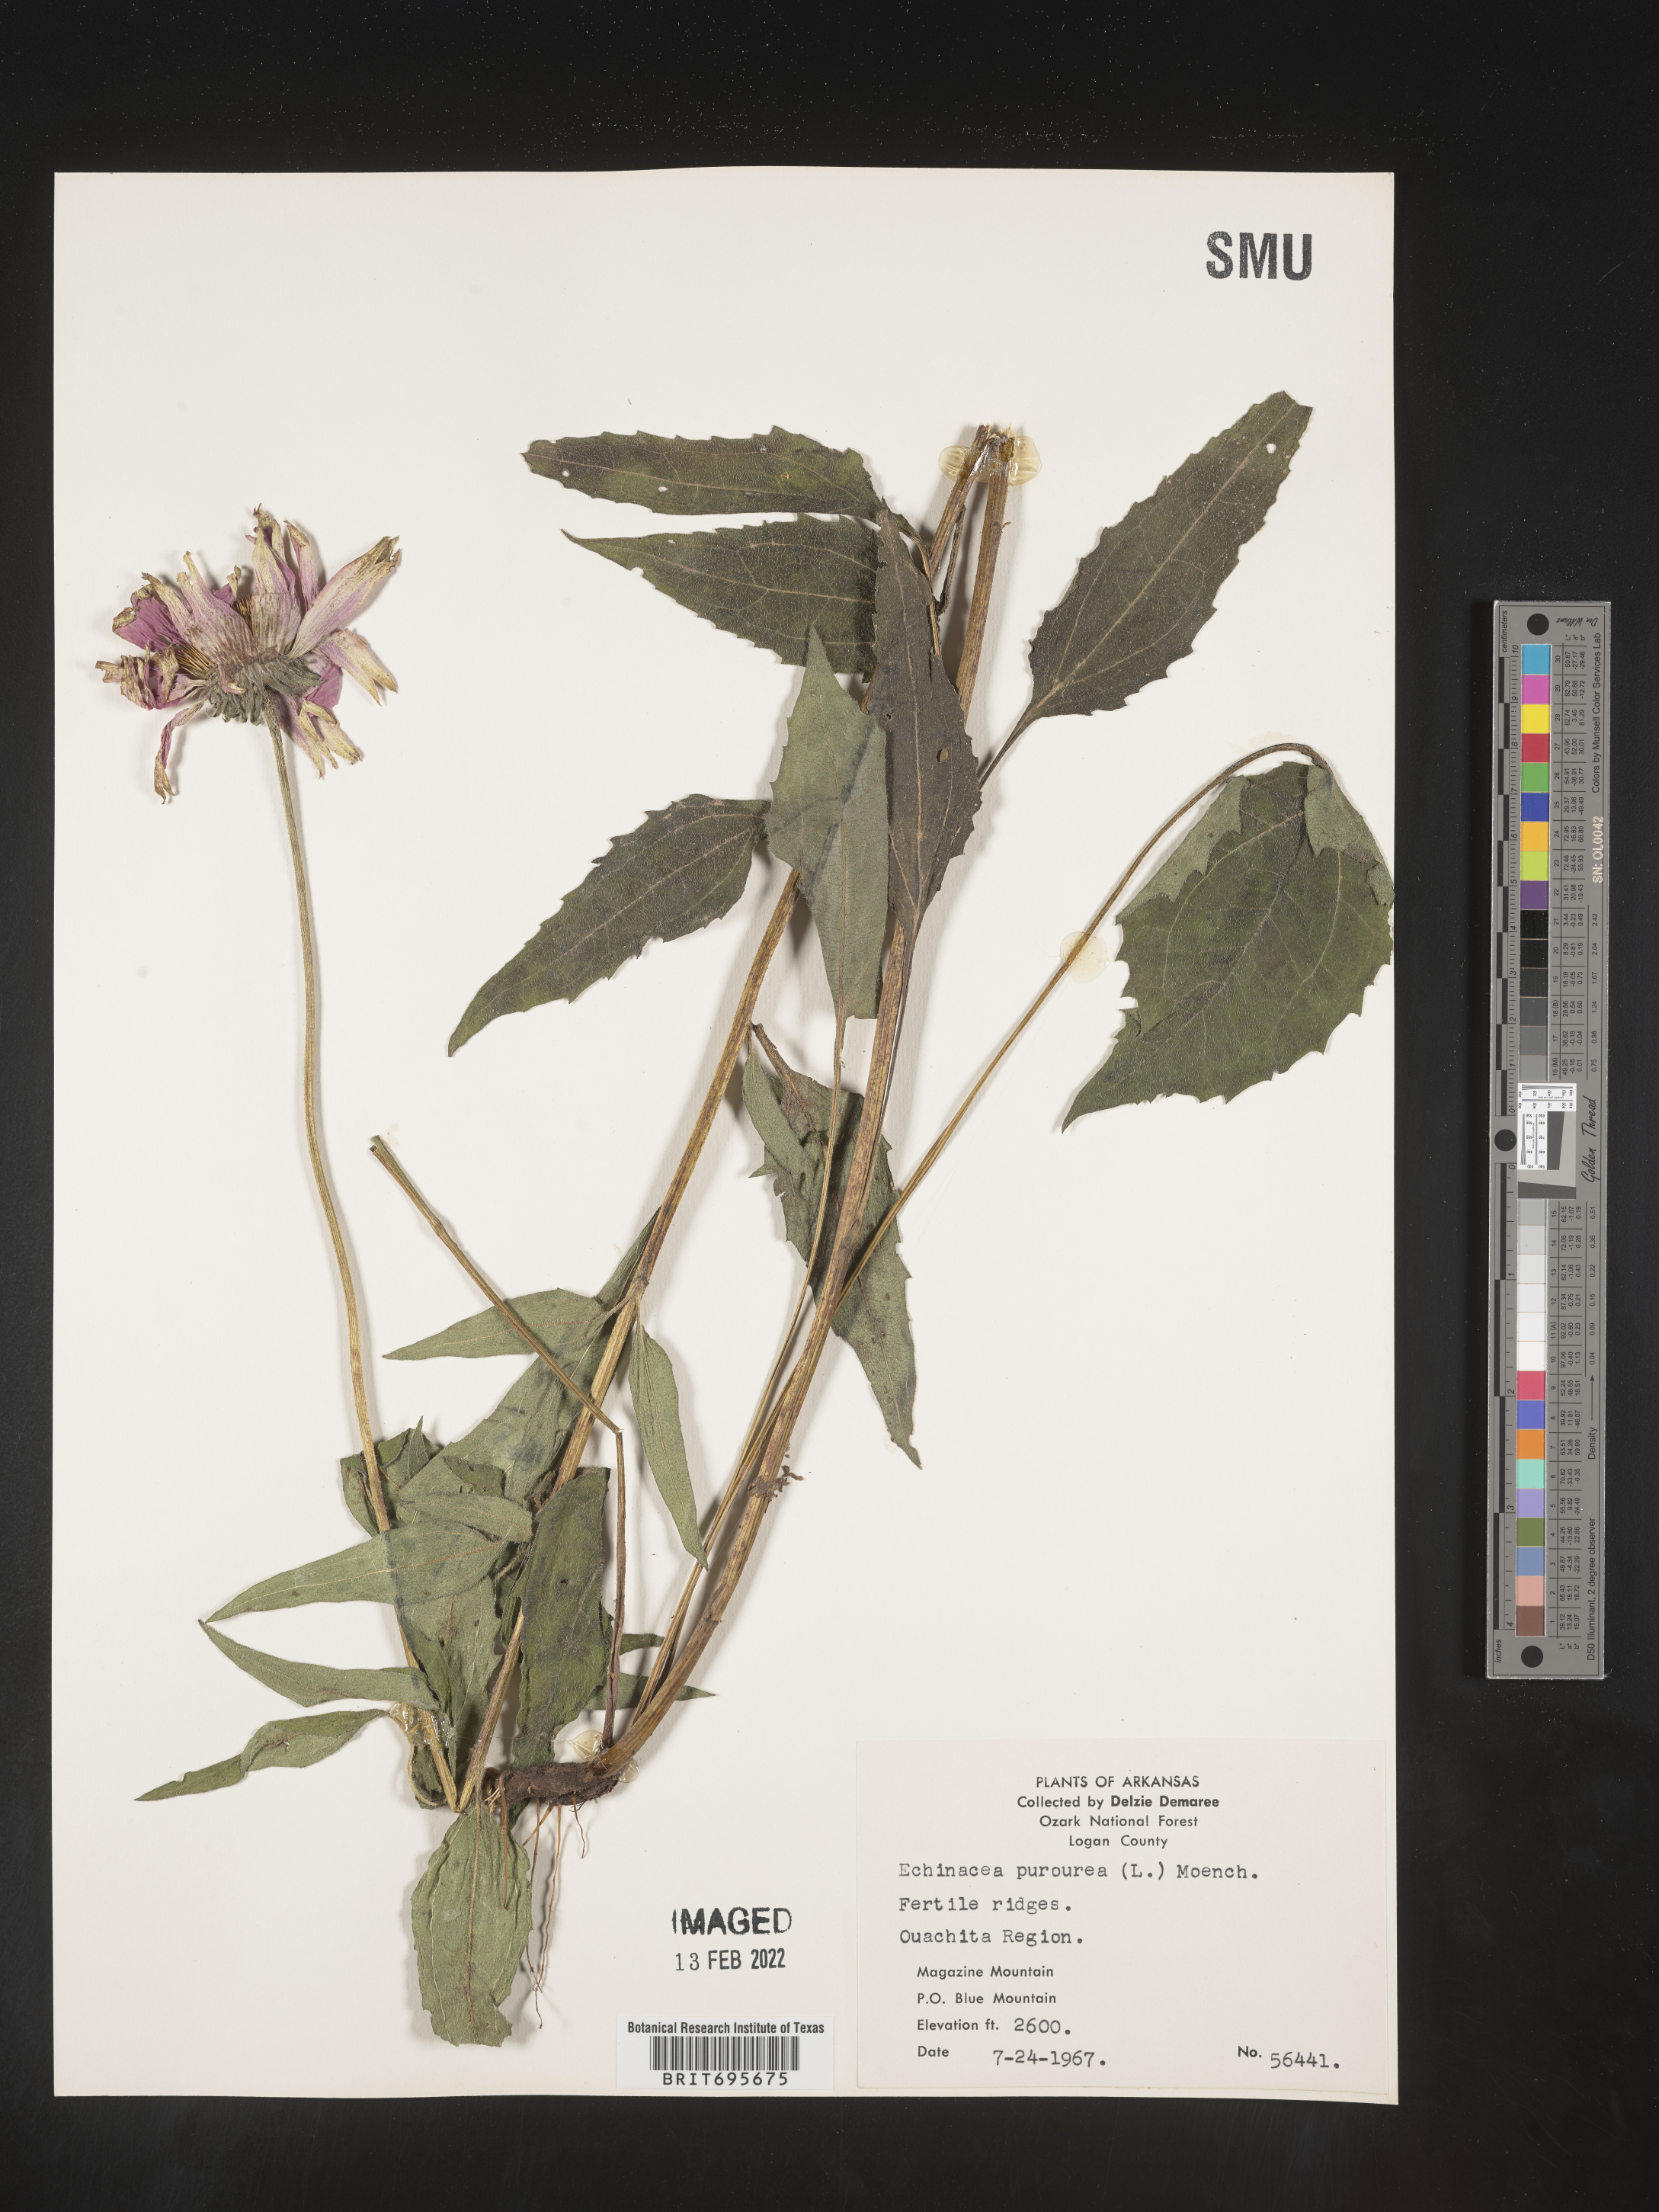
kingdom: Plantae
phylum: Tracheophyta
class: Magnoliopsida
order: Asterales
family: Asteraceae
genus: Echinacea
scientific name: Echinacea purpurea
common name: Broad-leaved purple coneflower
